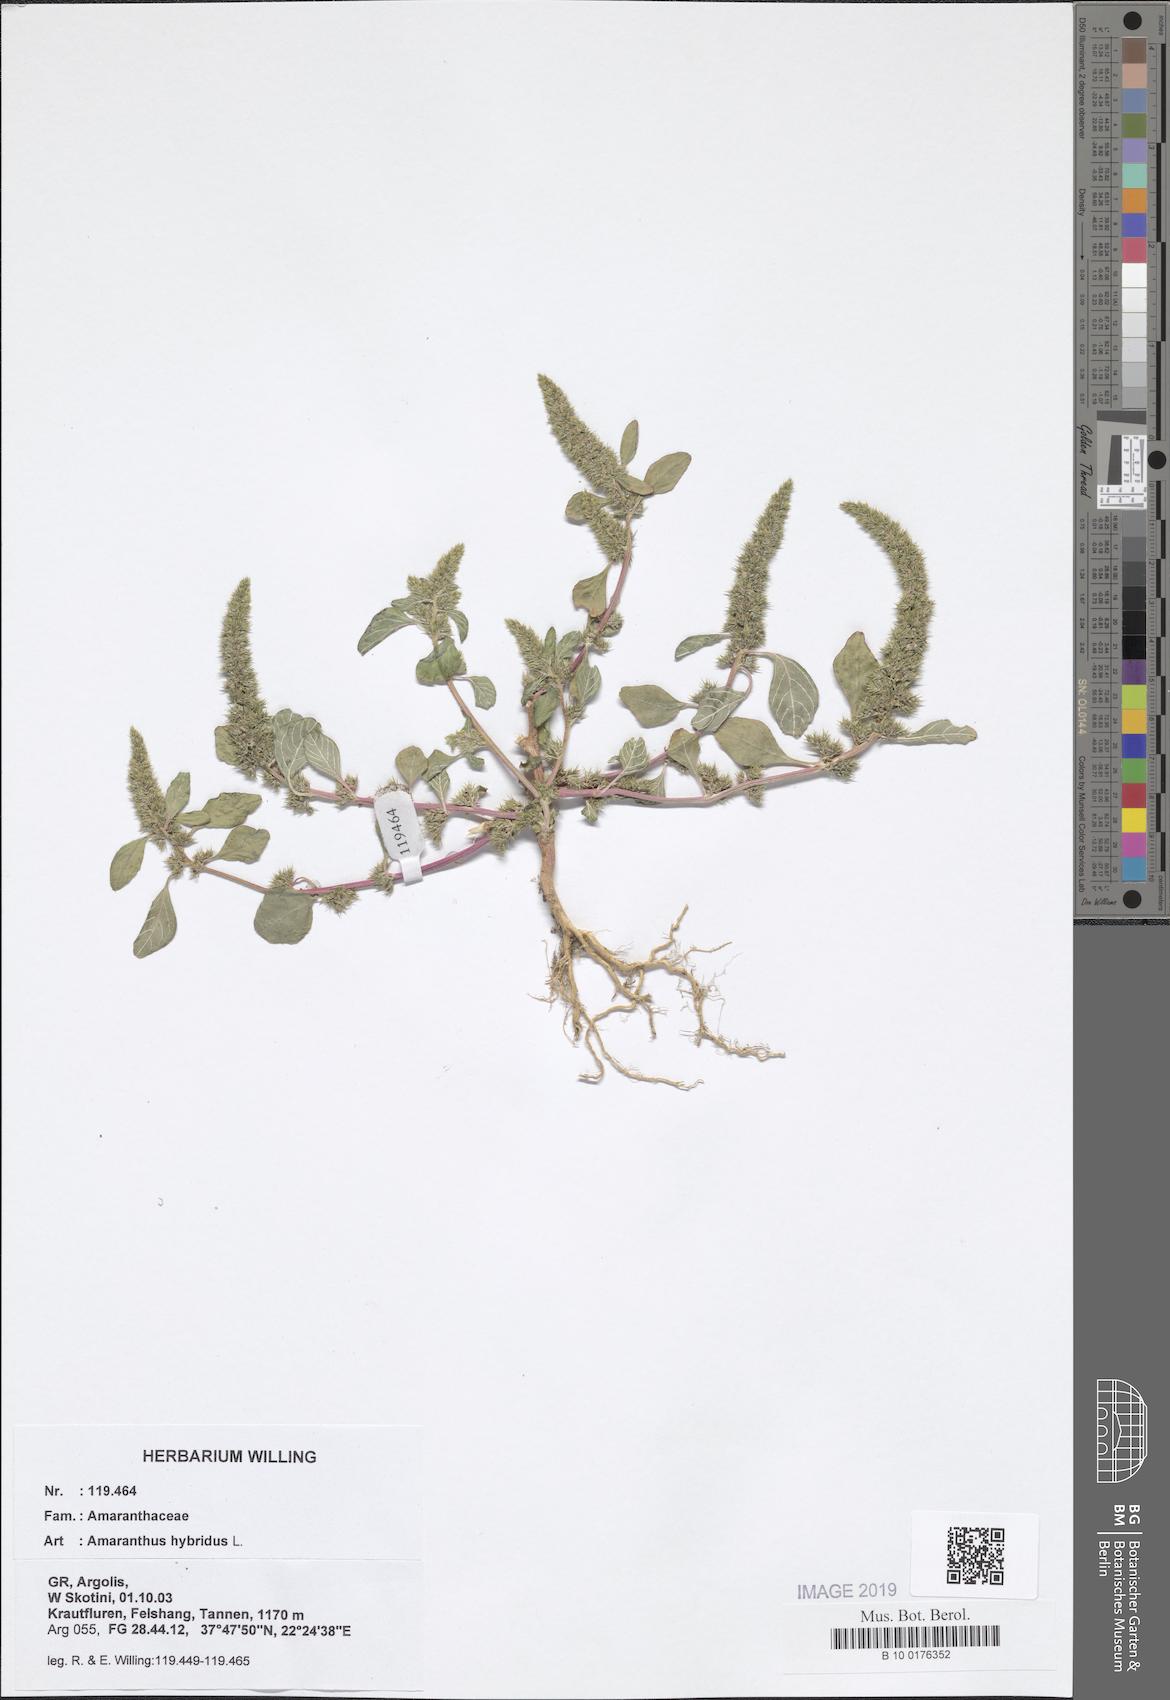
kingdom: Plantae
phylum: Tracheophyta
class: Magnoliopsida
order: Caryophyllales
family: Amaranthaceae
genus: Amaranthus
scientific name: Amaranthus hybridus
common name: Green amaranth
